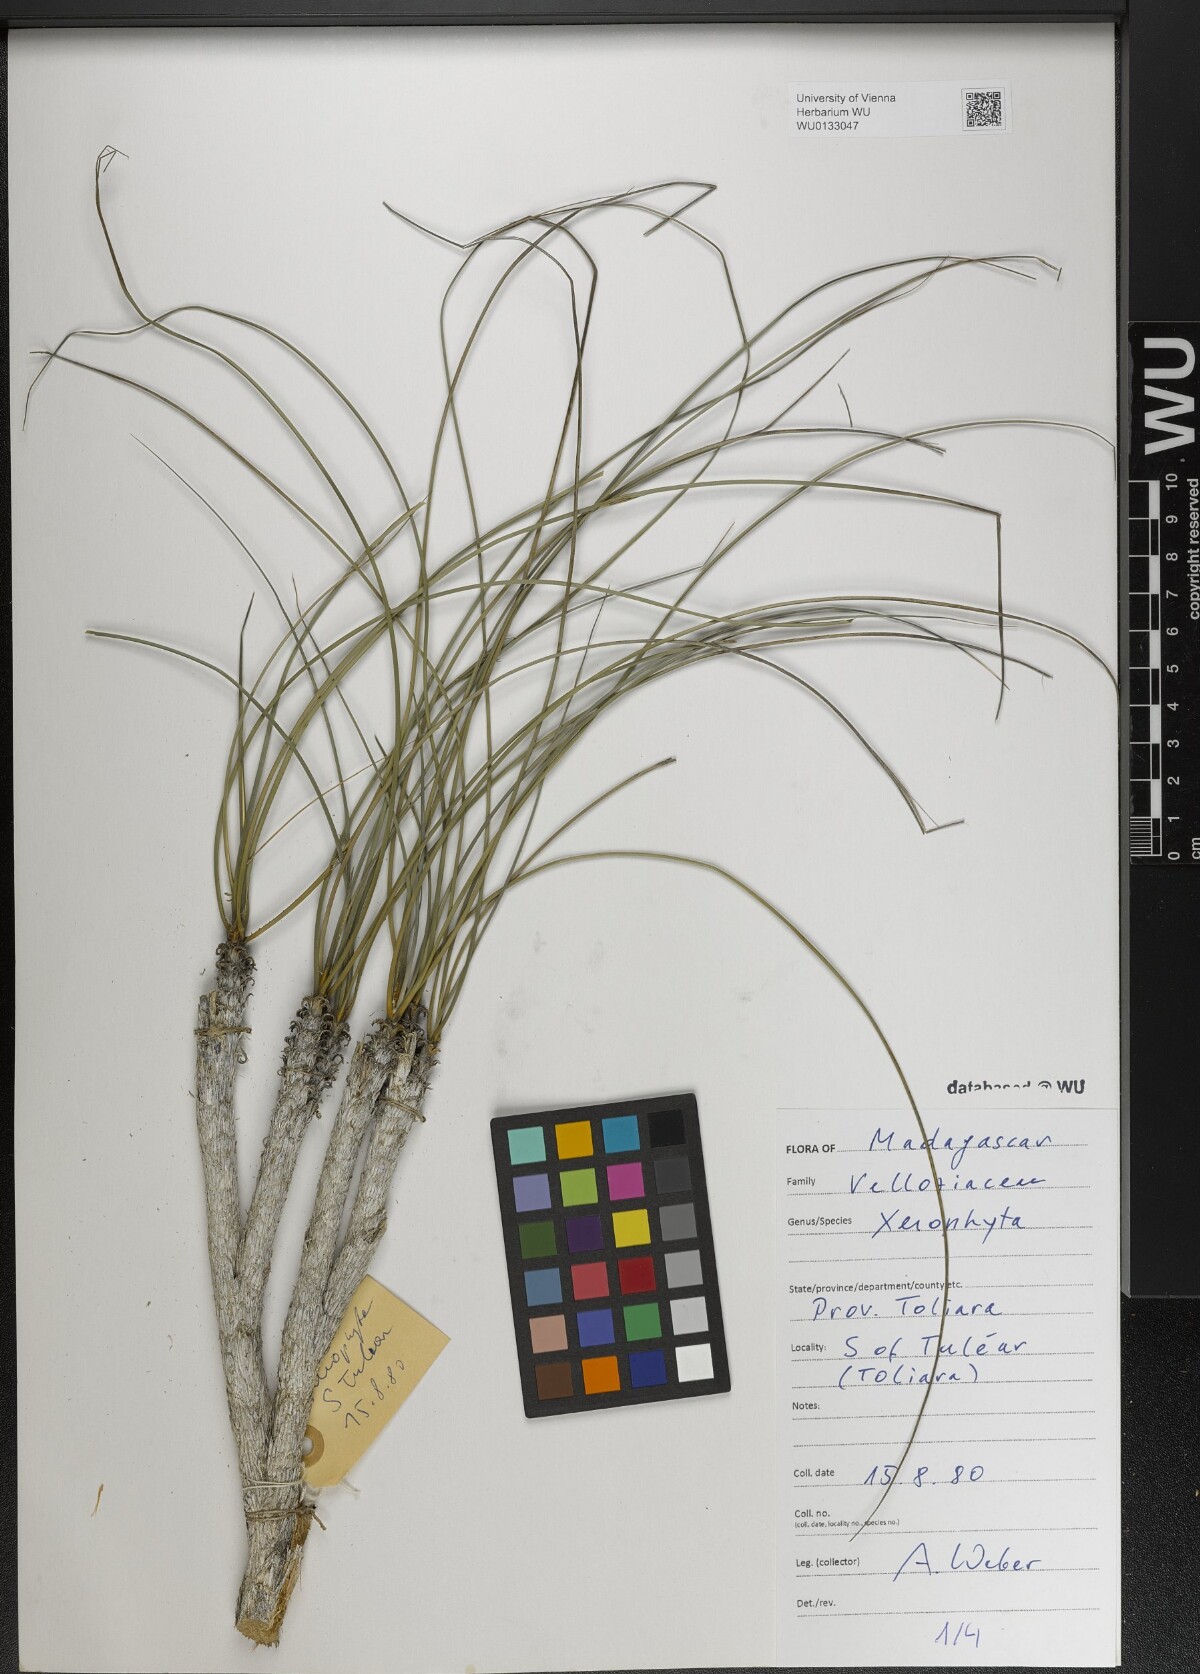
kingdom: Plantae
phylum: Tracheophyta
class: Liliopsida
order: Pandanales
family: Velloziaceae
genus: Xerophyta
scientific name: Xerophyta
